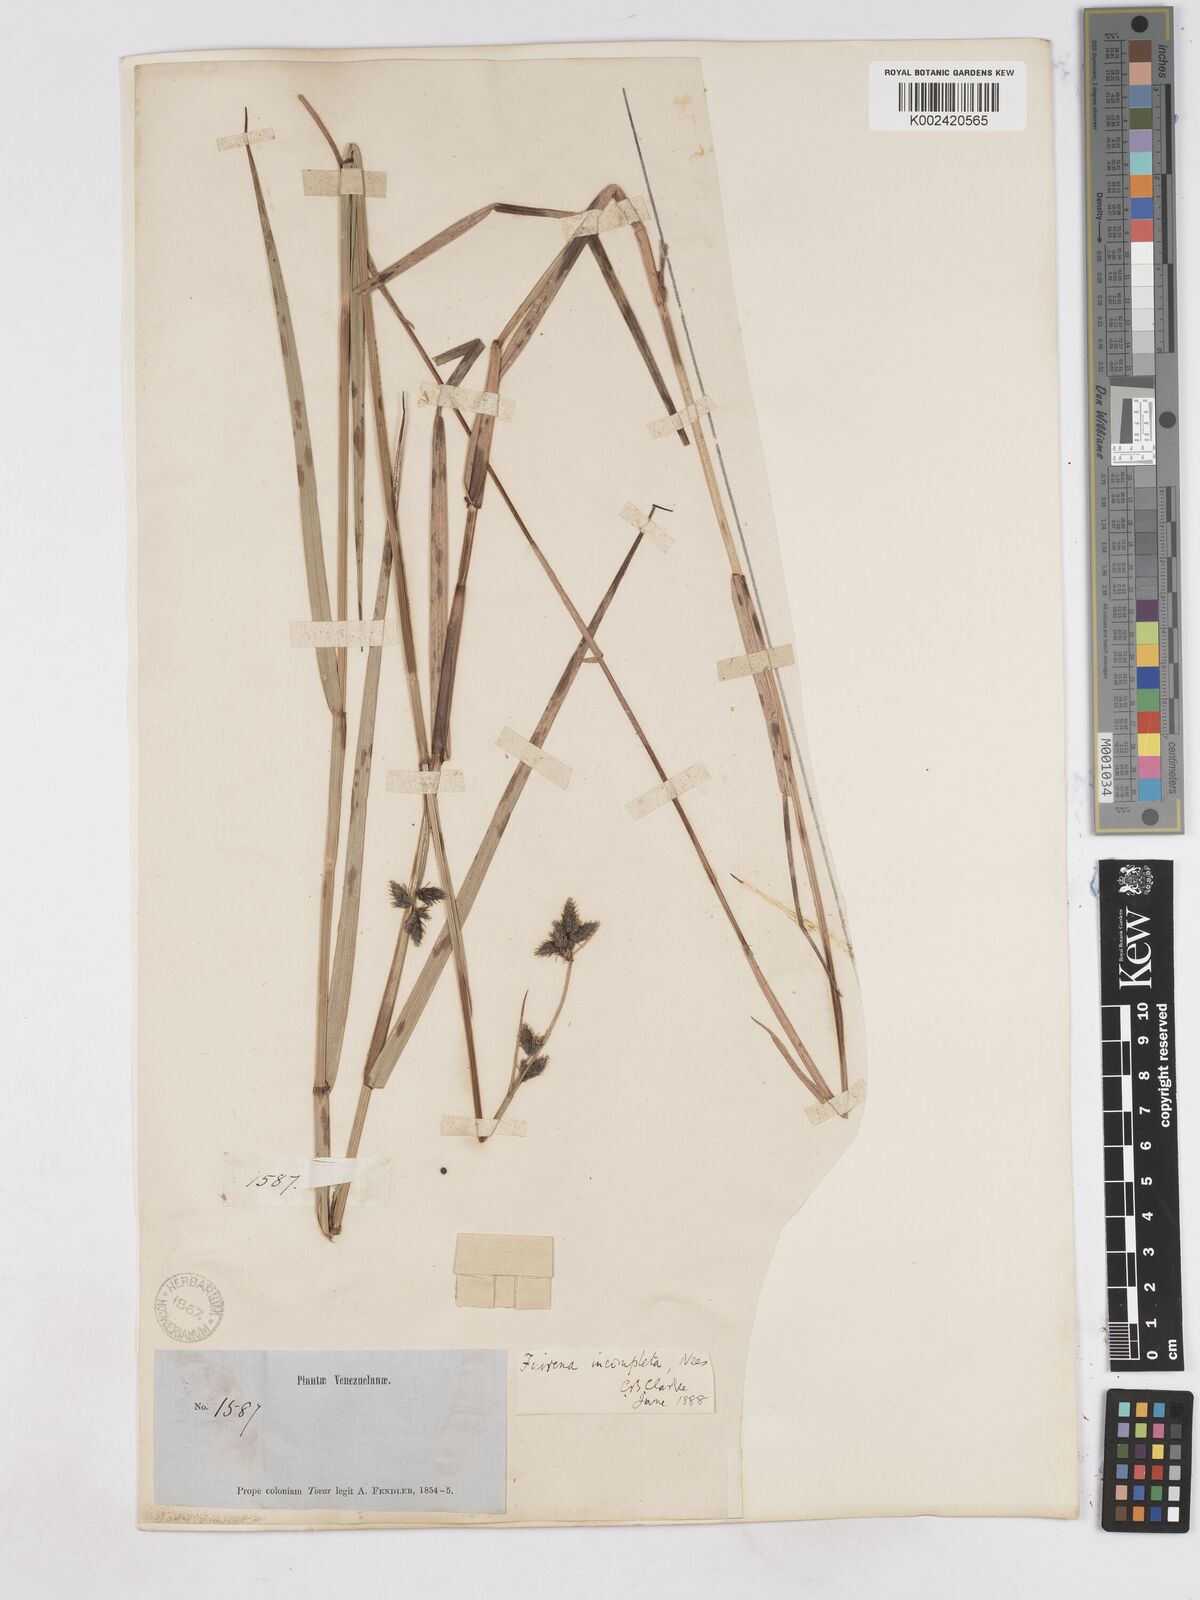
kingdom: Plantae
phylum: Tracheophyta
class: Liliopsida
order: Poales
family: Cyperaceae
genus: Fuirena
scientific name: Fuirena incompleta
